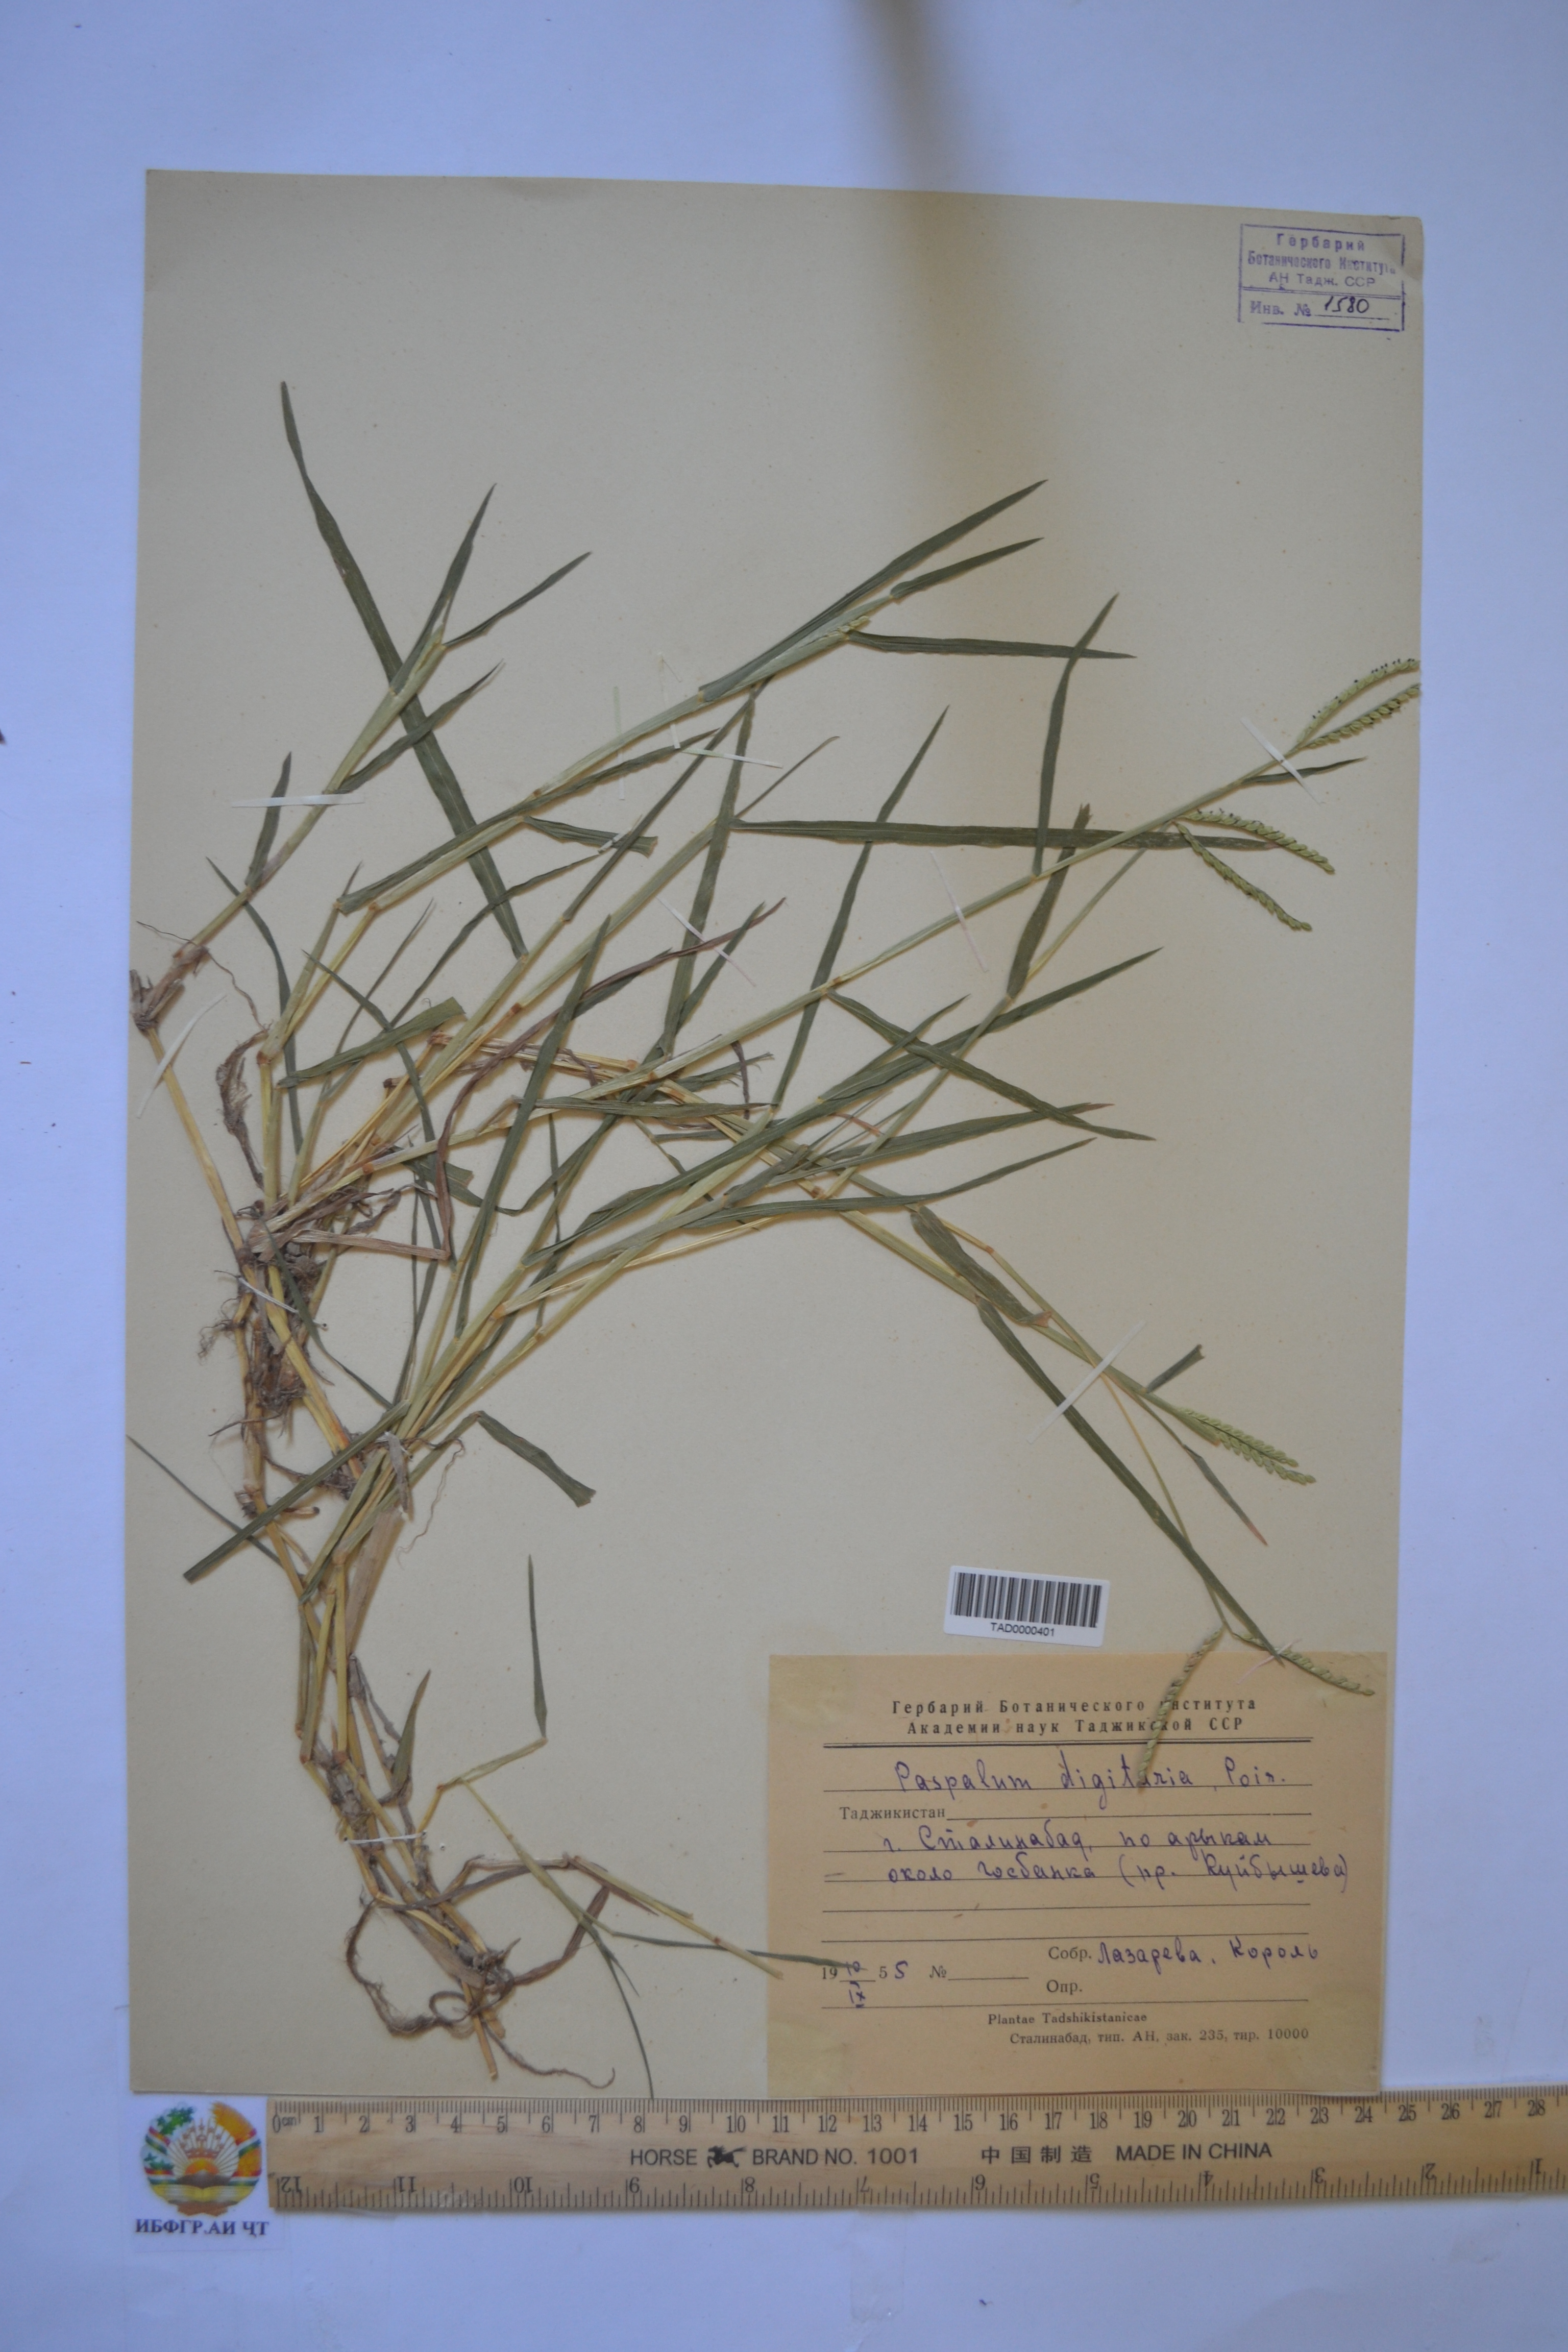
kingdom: Plantae
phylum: Tracheophyta
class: Liliopsida
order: Poales
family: Poaceae
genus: Paspalum
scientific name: Paspalum distichum
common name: Knotgrass
